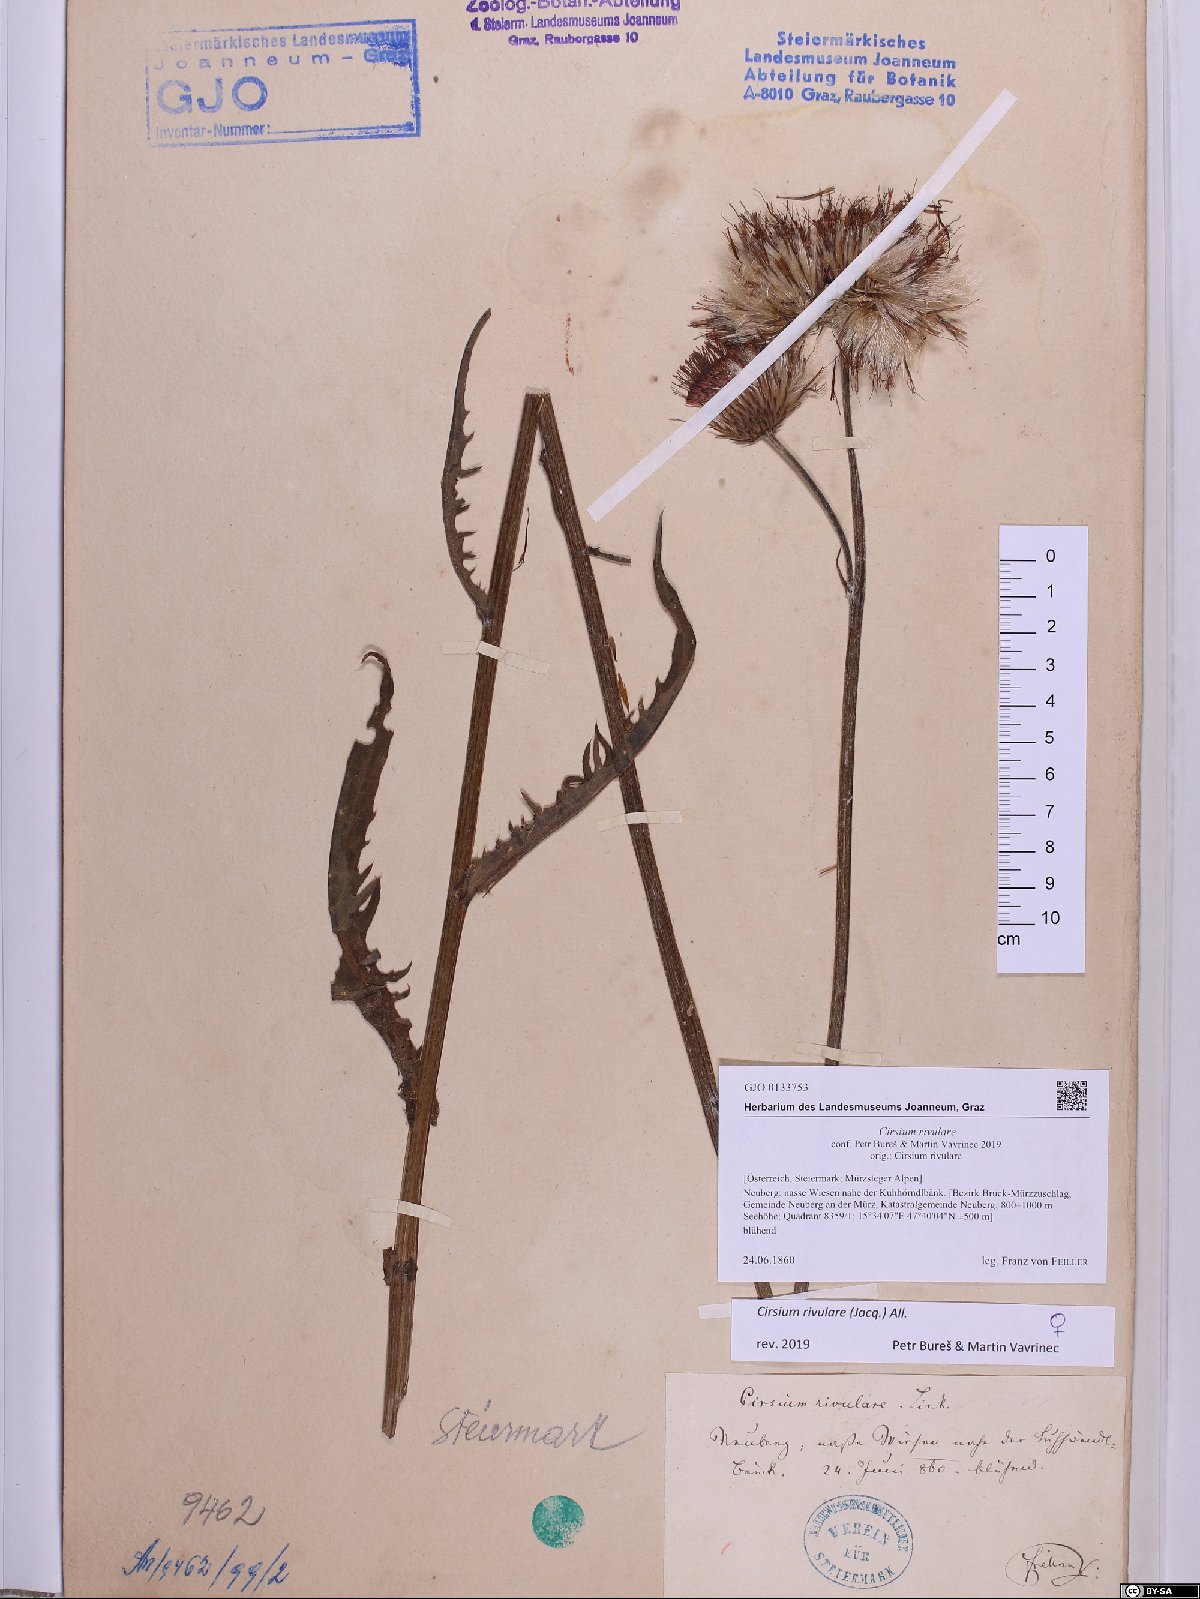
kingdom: Plantae
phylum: Tracheophyta
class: Magnoliopsida
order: Asterales
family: Asteraceae
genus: Cirsium
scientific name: Cirsium rivulare
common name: Brook thistle
